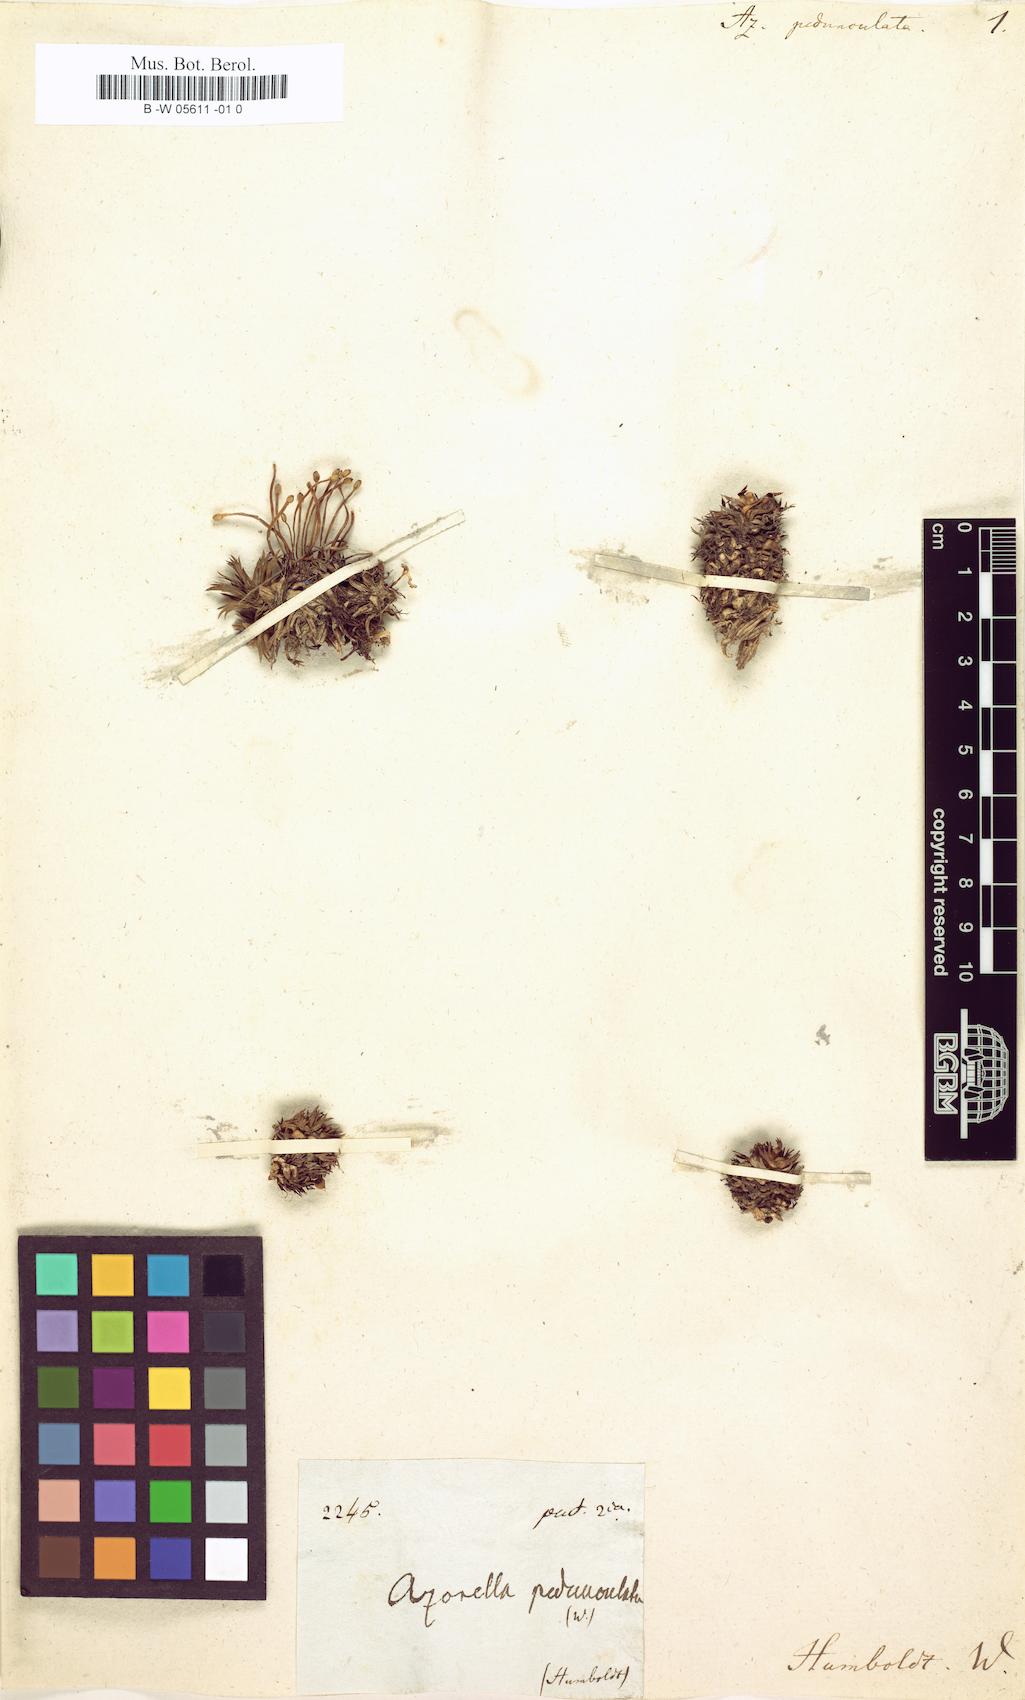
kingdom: Plantae
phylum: Tracheophyta
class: Magnoliopsida
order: Apiales
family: Apiaceae
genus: Azorella
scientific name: Azorella pedunculata
